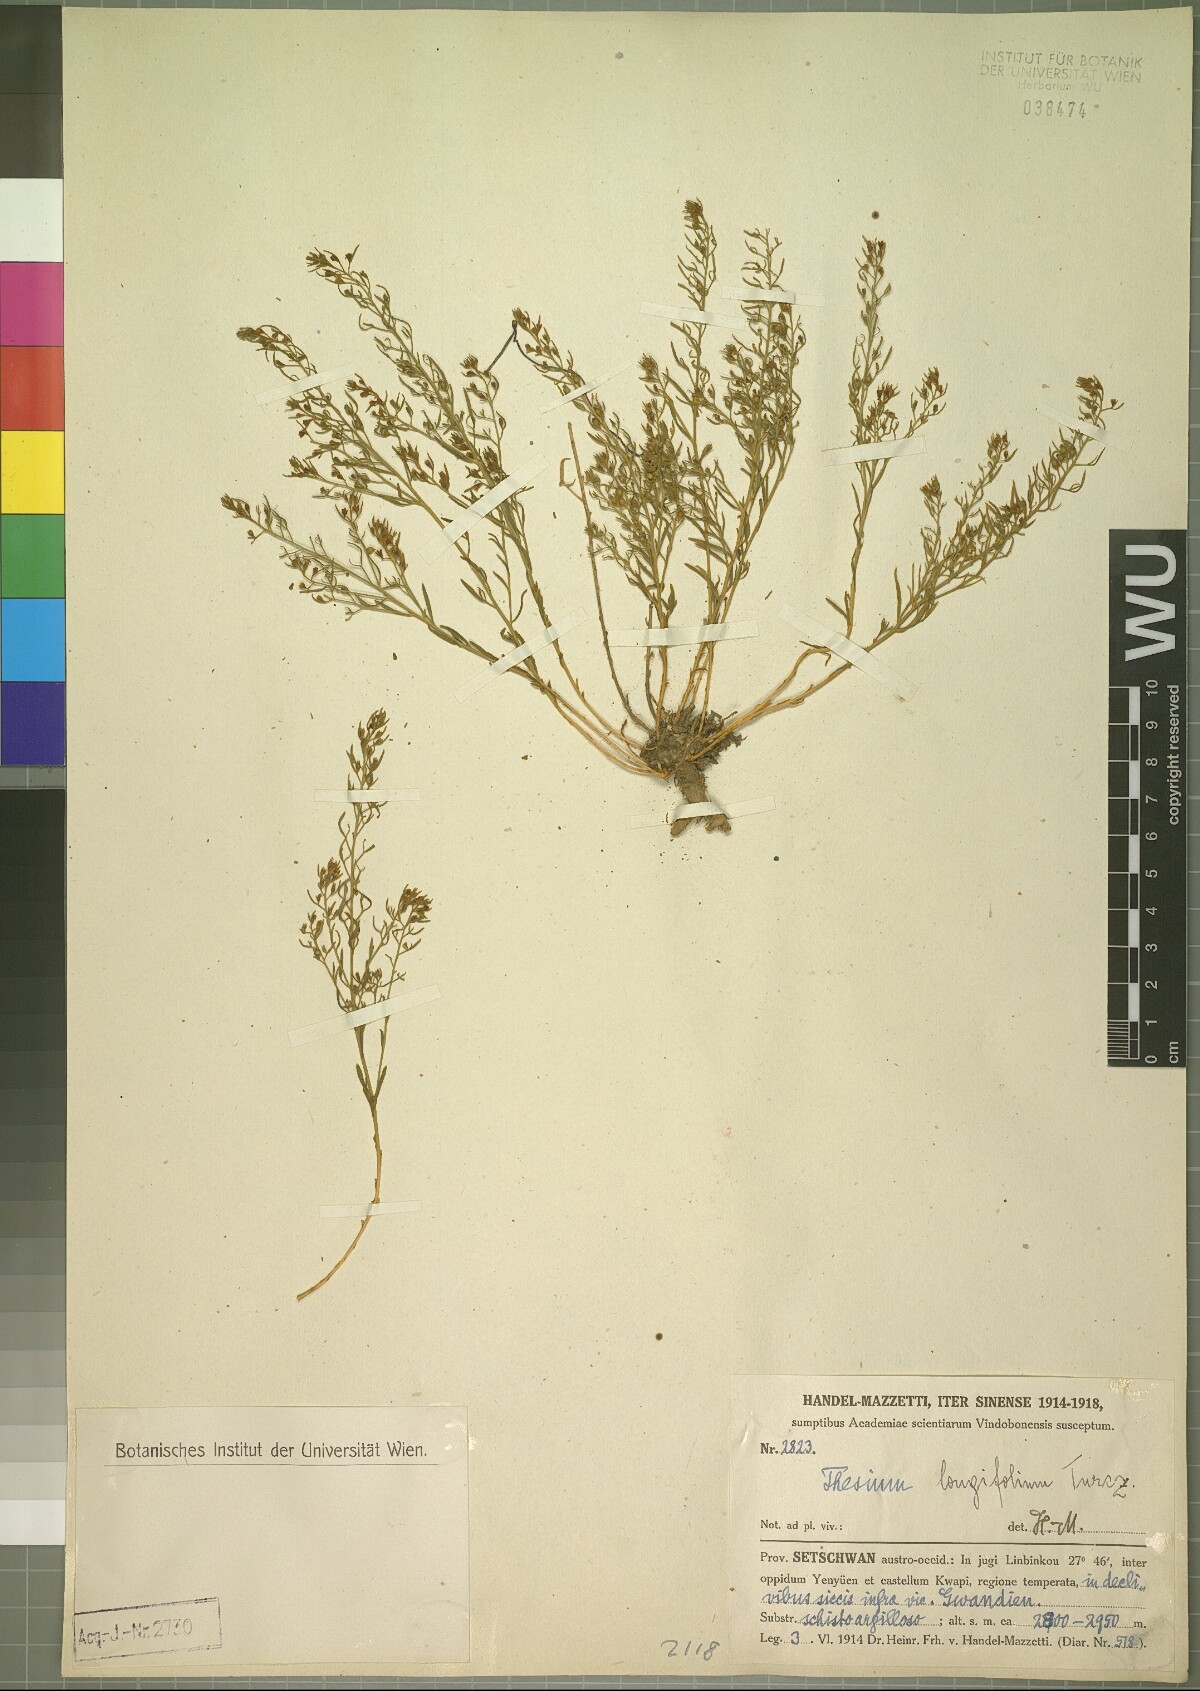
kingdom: Plantae
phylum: Tracheophyta
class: Magnoliopsida
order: Santalales
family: Thesiaceae
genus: Thesium
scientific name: Thesium longifolium
